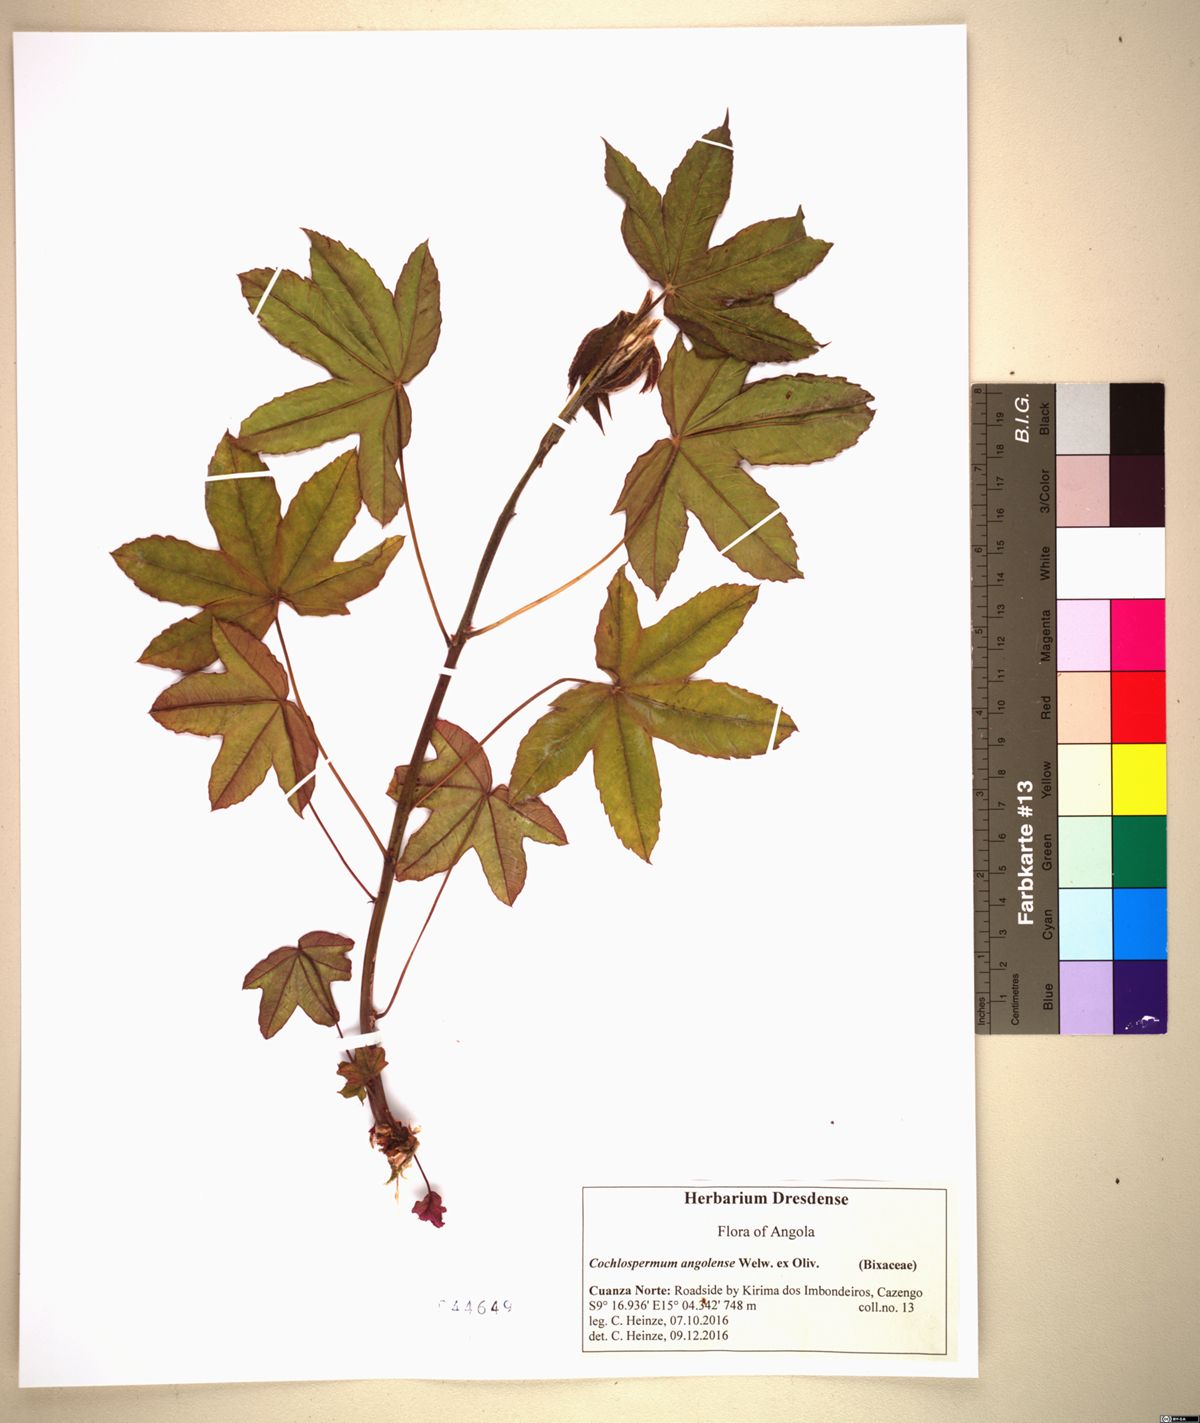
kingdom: Plantae
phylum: Tracheophyta
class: Magnoliopsida
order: Malvales
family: Cochlospermaceae
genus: Cochlospermum
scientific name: Cochlospermum angolense
